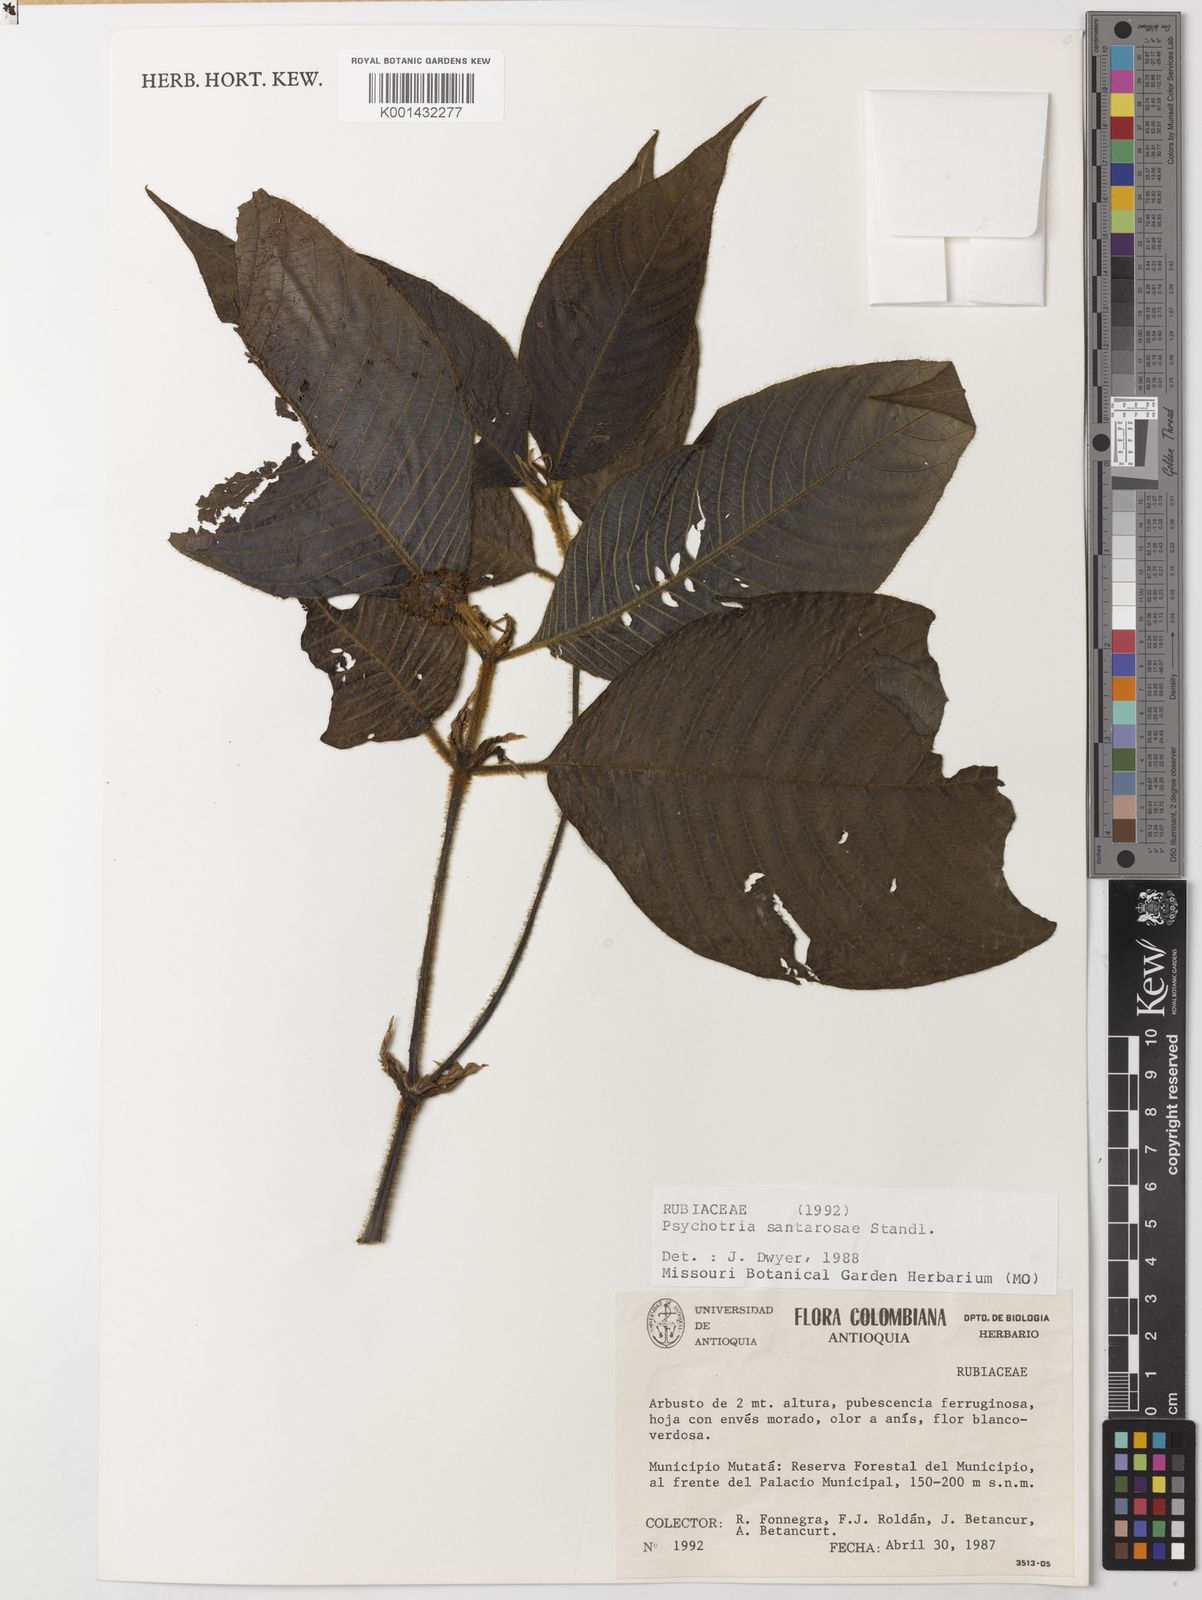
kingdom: Plantae
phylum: Tracheophyta
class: Magnoliopsida
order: Gentianales
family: Rubiaceae
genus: Psychotria
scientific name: Psychotria
